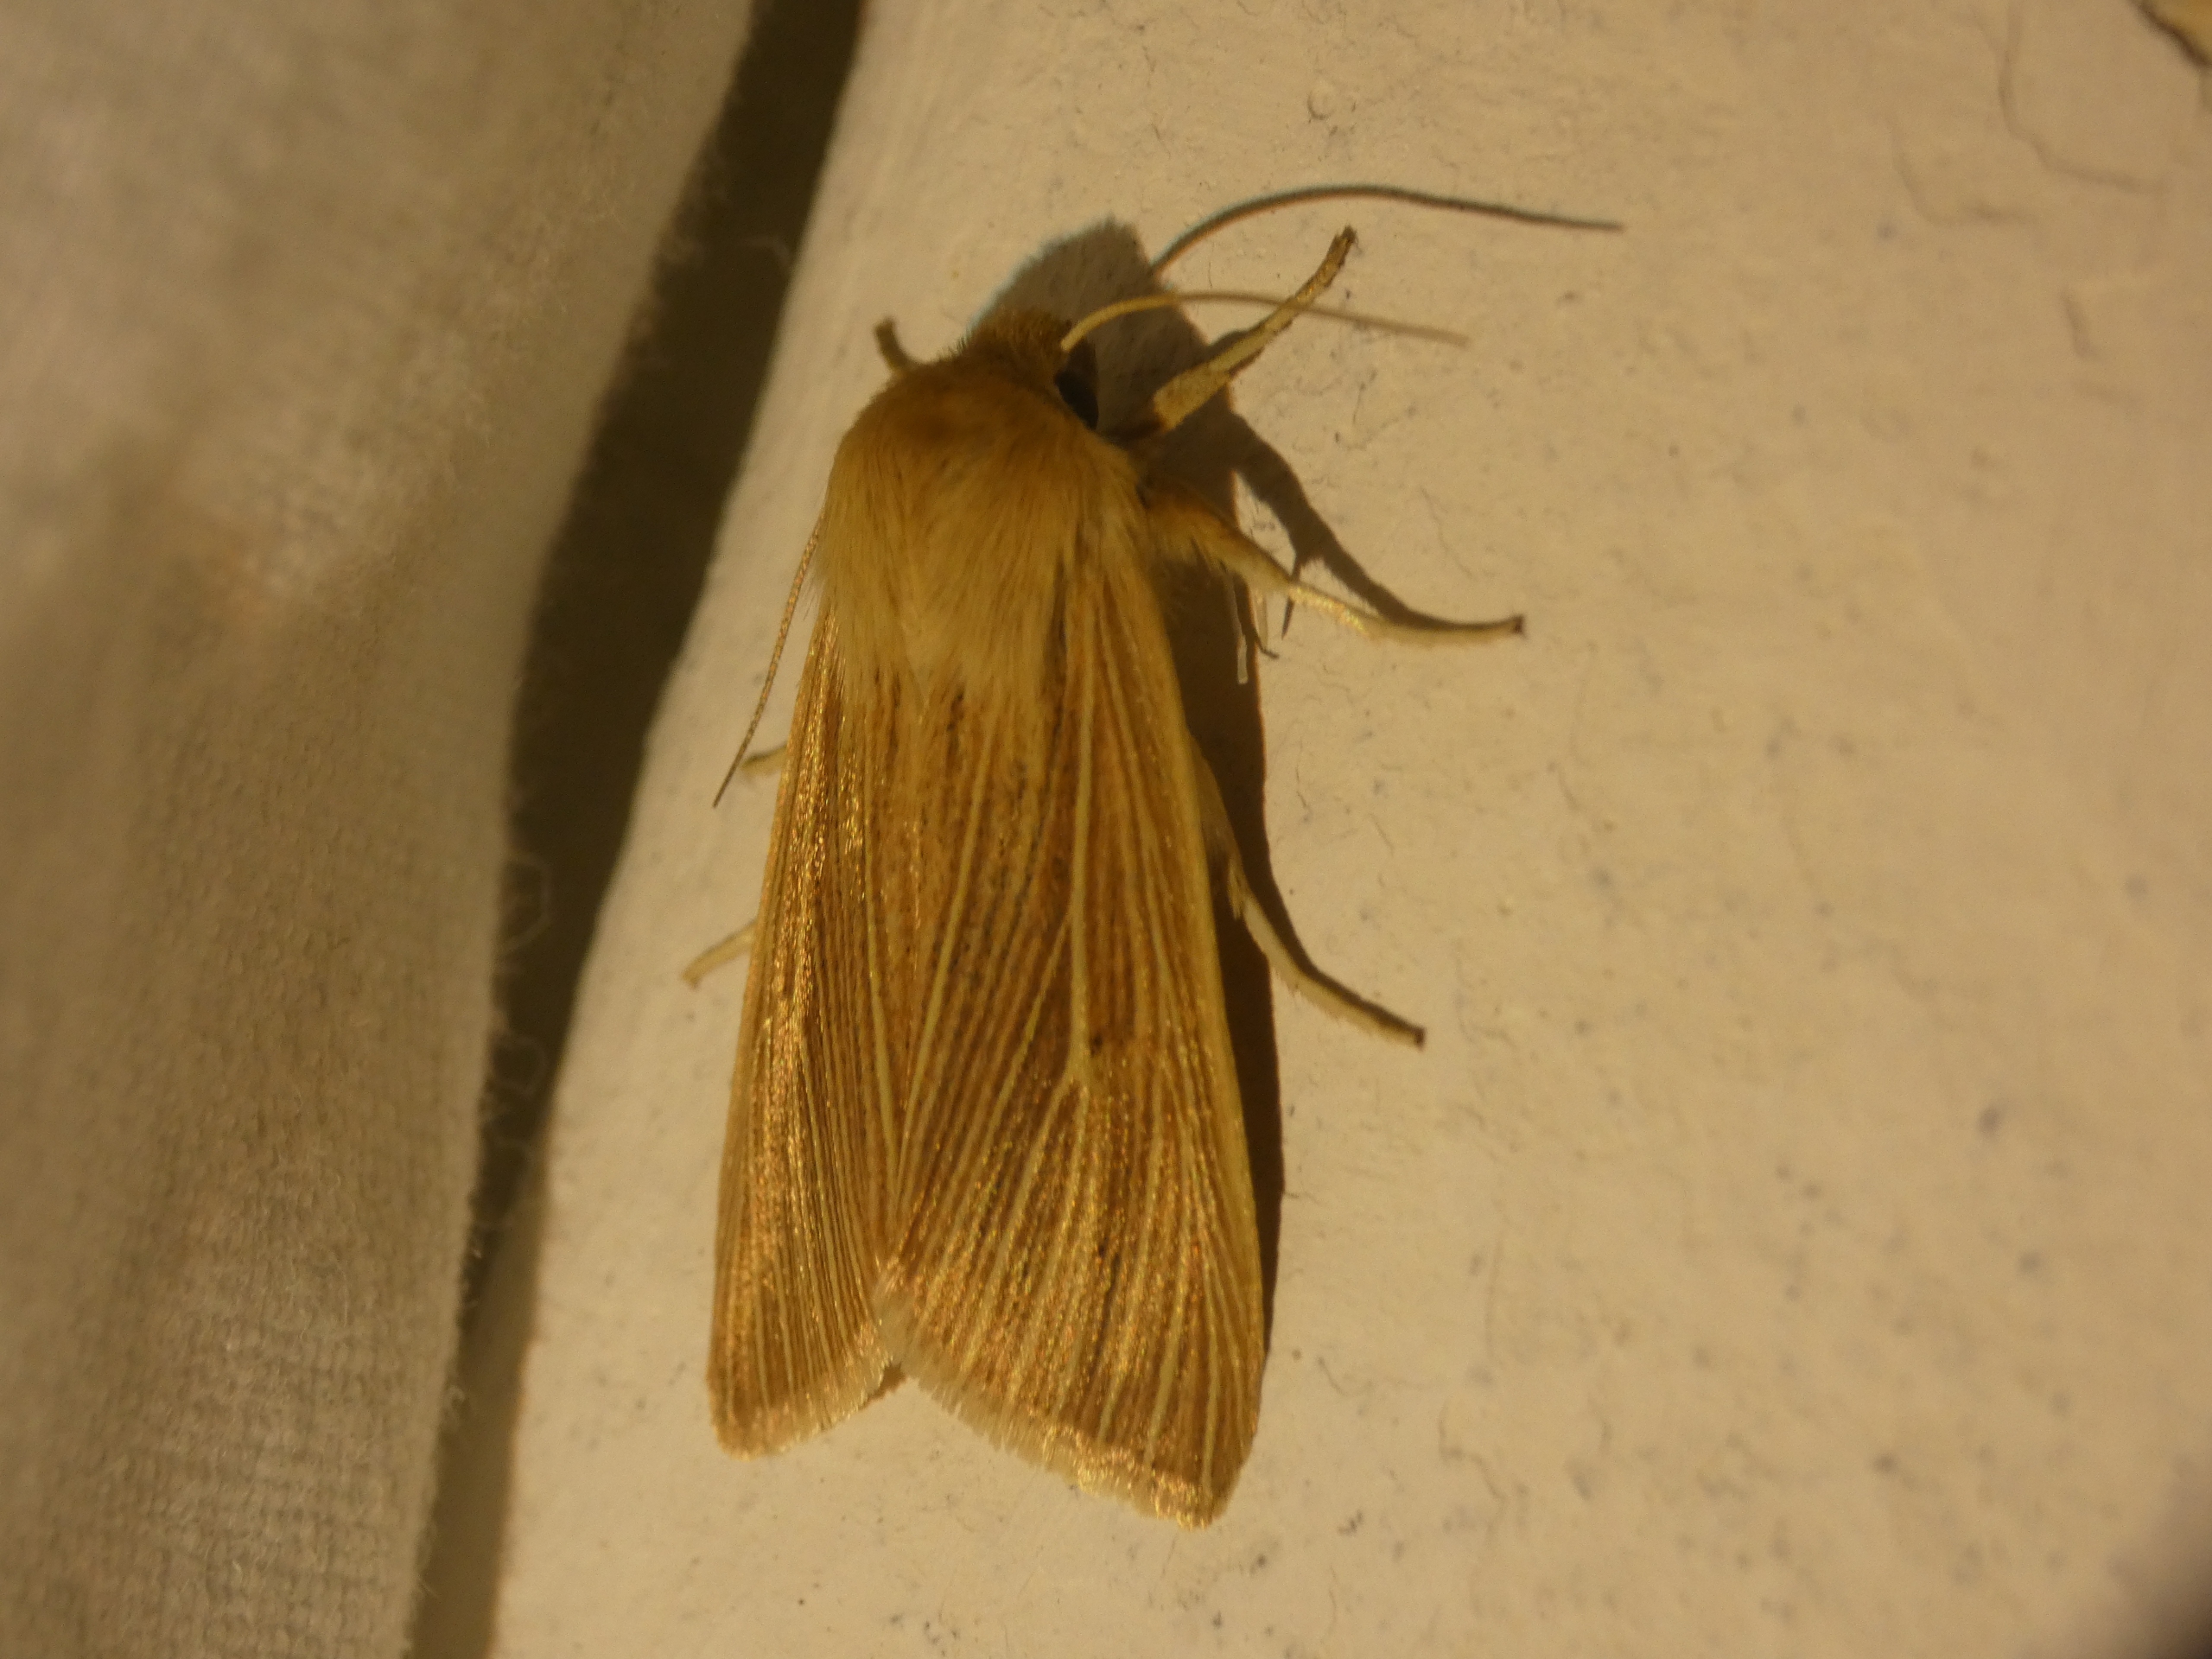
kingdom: Animalia
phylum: Arthropoda
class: Insecta
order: Lepidoptera
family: Noctuidae
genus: Mythimna
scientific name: Mythimna pallens
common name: Halmugle
